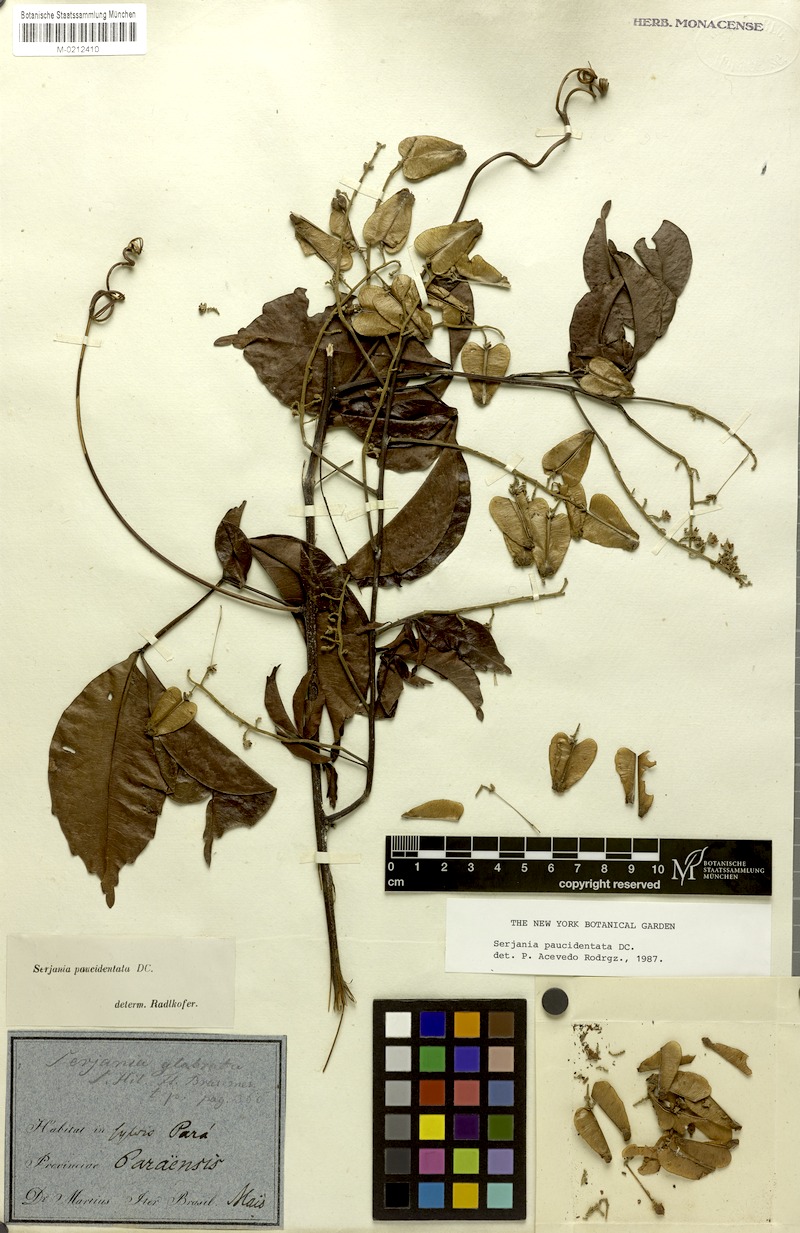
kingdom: Plantae
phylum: Tracheophyta
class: Magnoliopsida
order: Sapindales
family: Sapindaceae
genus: Serjania
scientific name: Serjania paucidentata
